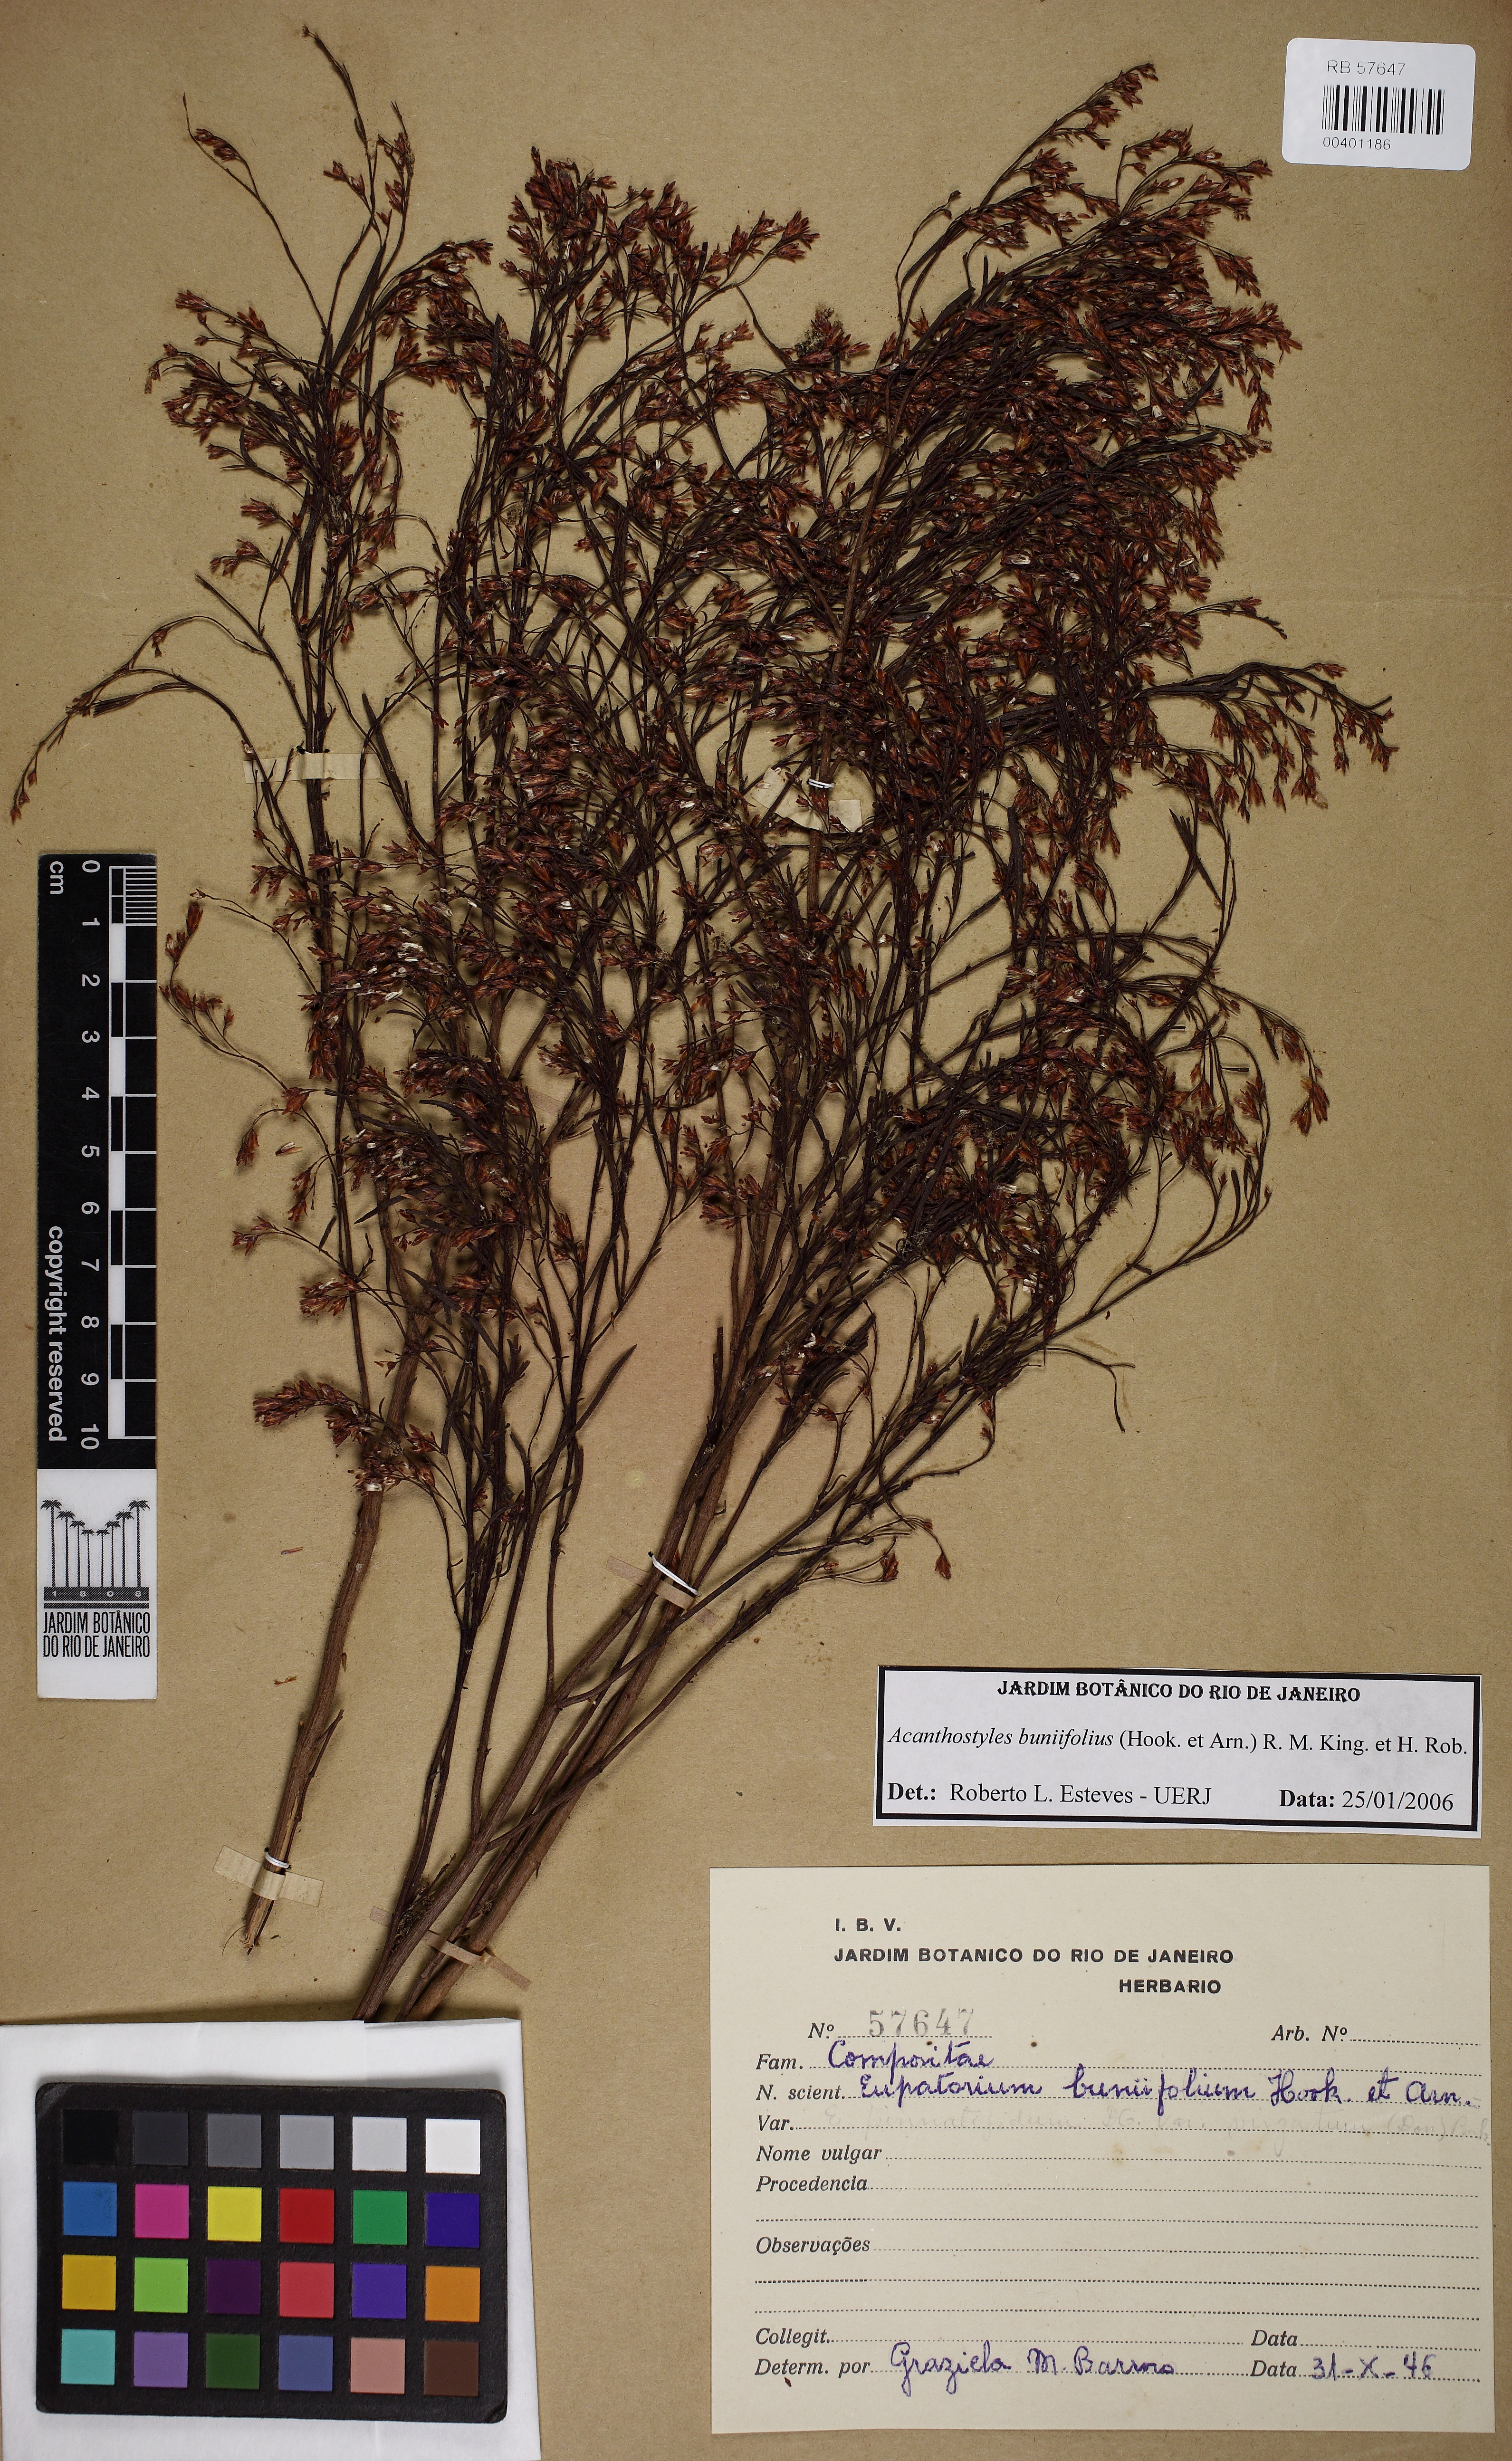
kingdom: Plantae
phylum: Tracheophyta
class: Magnoliopsida
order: Asterales
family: Asteraceae
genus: Acanthostyles
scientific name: Acanthostyles buniifolius
